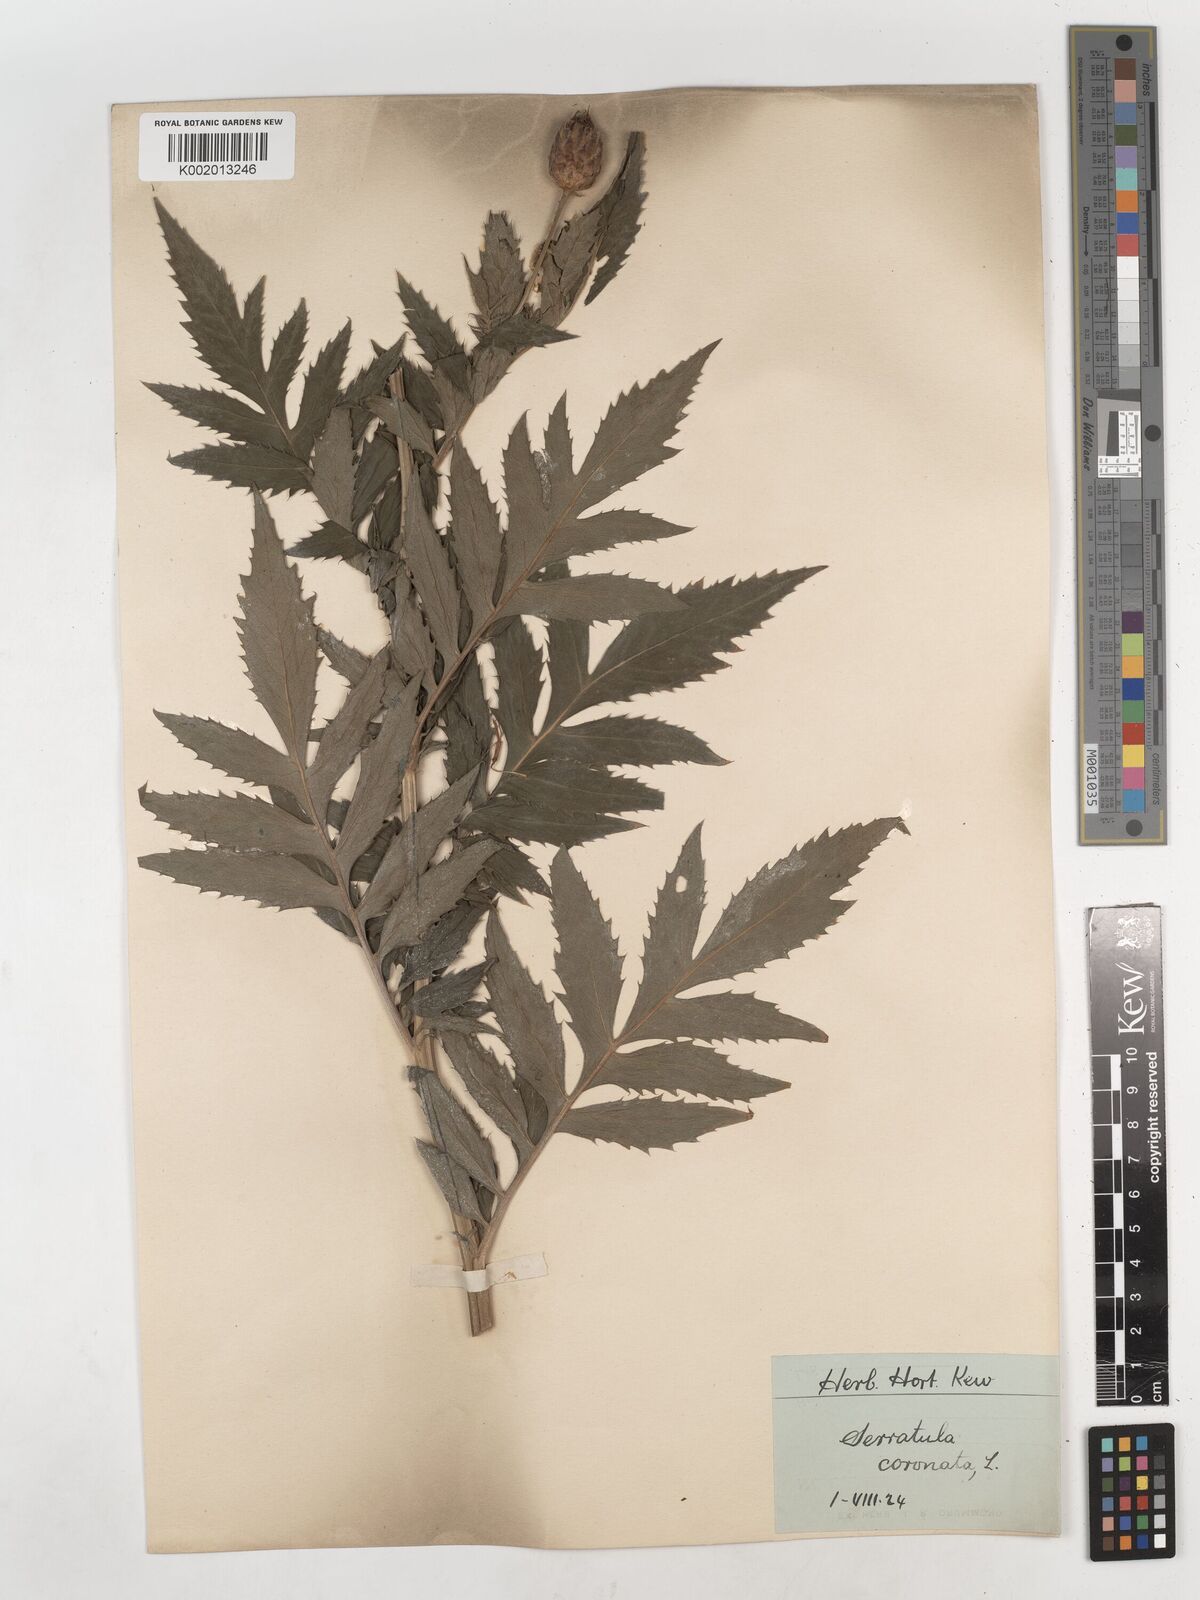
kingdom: Plantae
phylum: Tracheophyta
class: Magnoliopsida
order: Asterales
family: Asteraceae
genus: Serratula
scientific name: Serratula coronata
